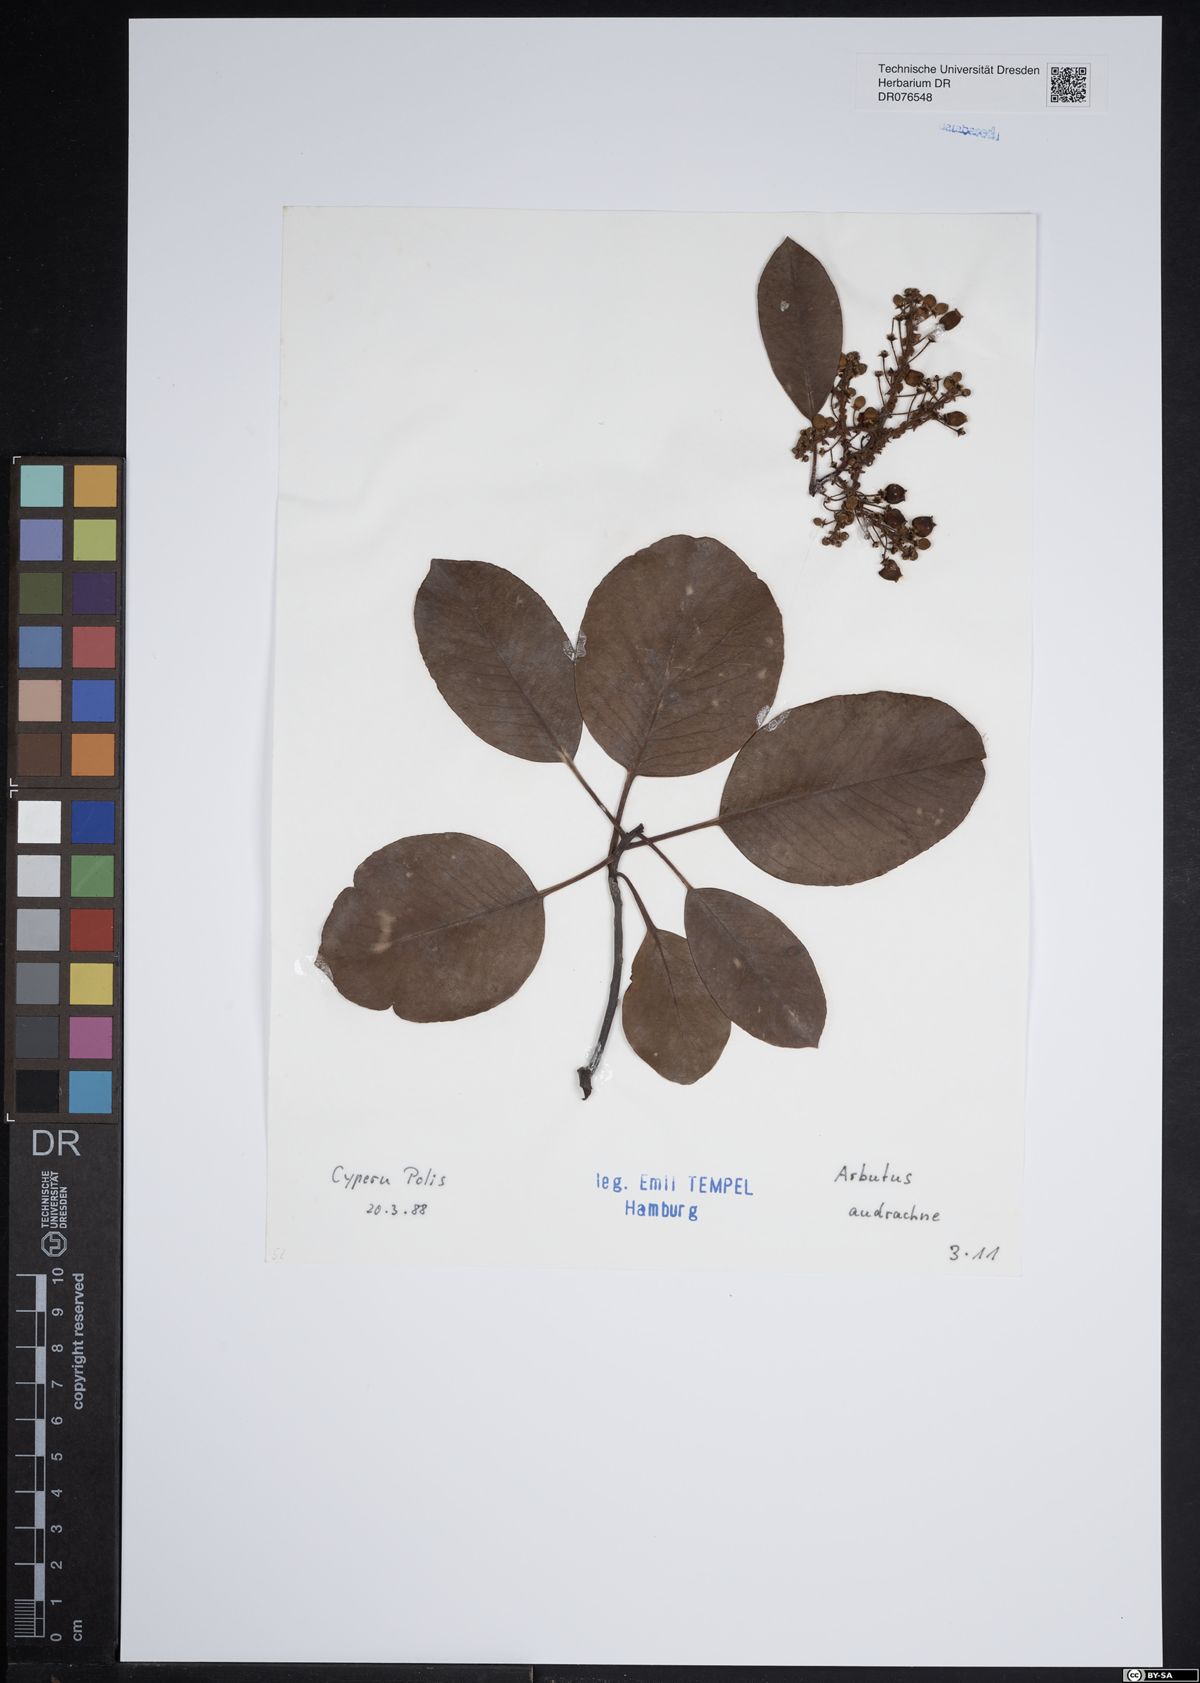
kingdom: Plantae
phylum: Tracheophyta
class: Magnoliopsida
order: Ericales
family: Ericaceae
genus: Arbutus
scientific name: Arbutus andrachne
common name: Greek strawberry tree
